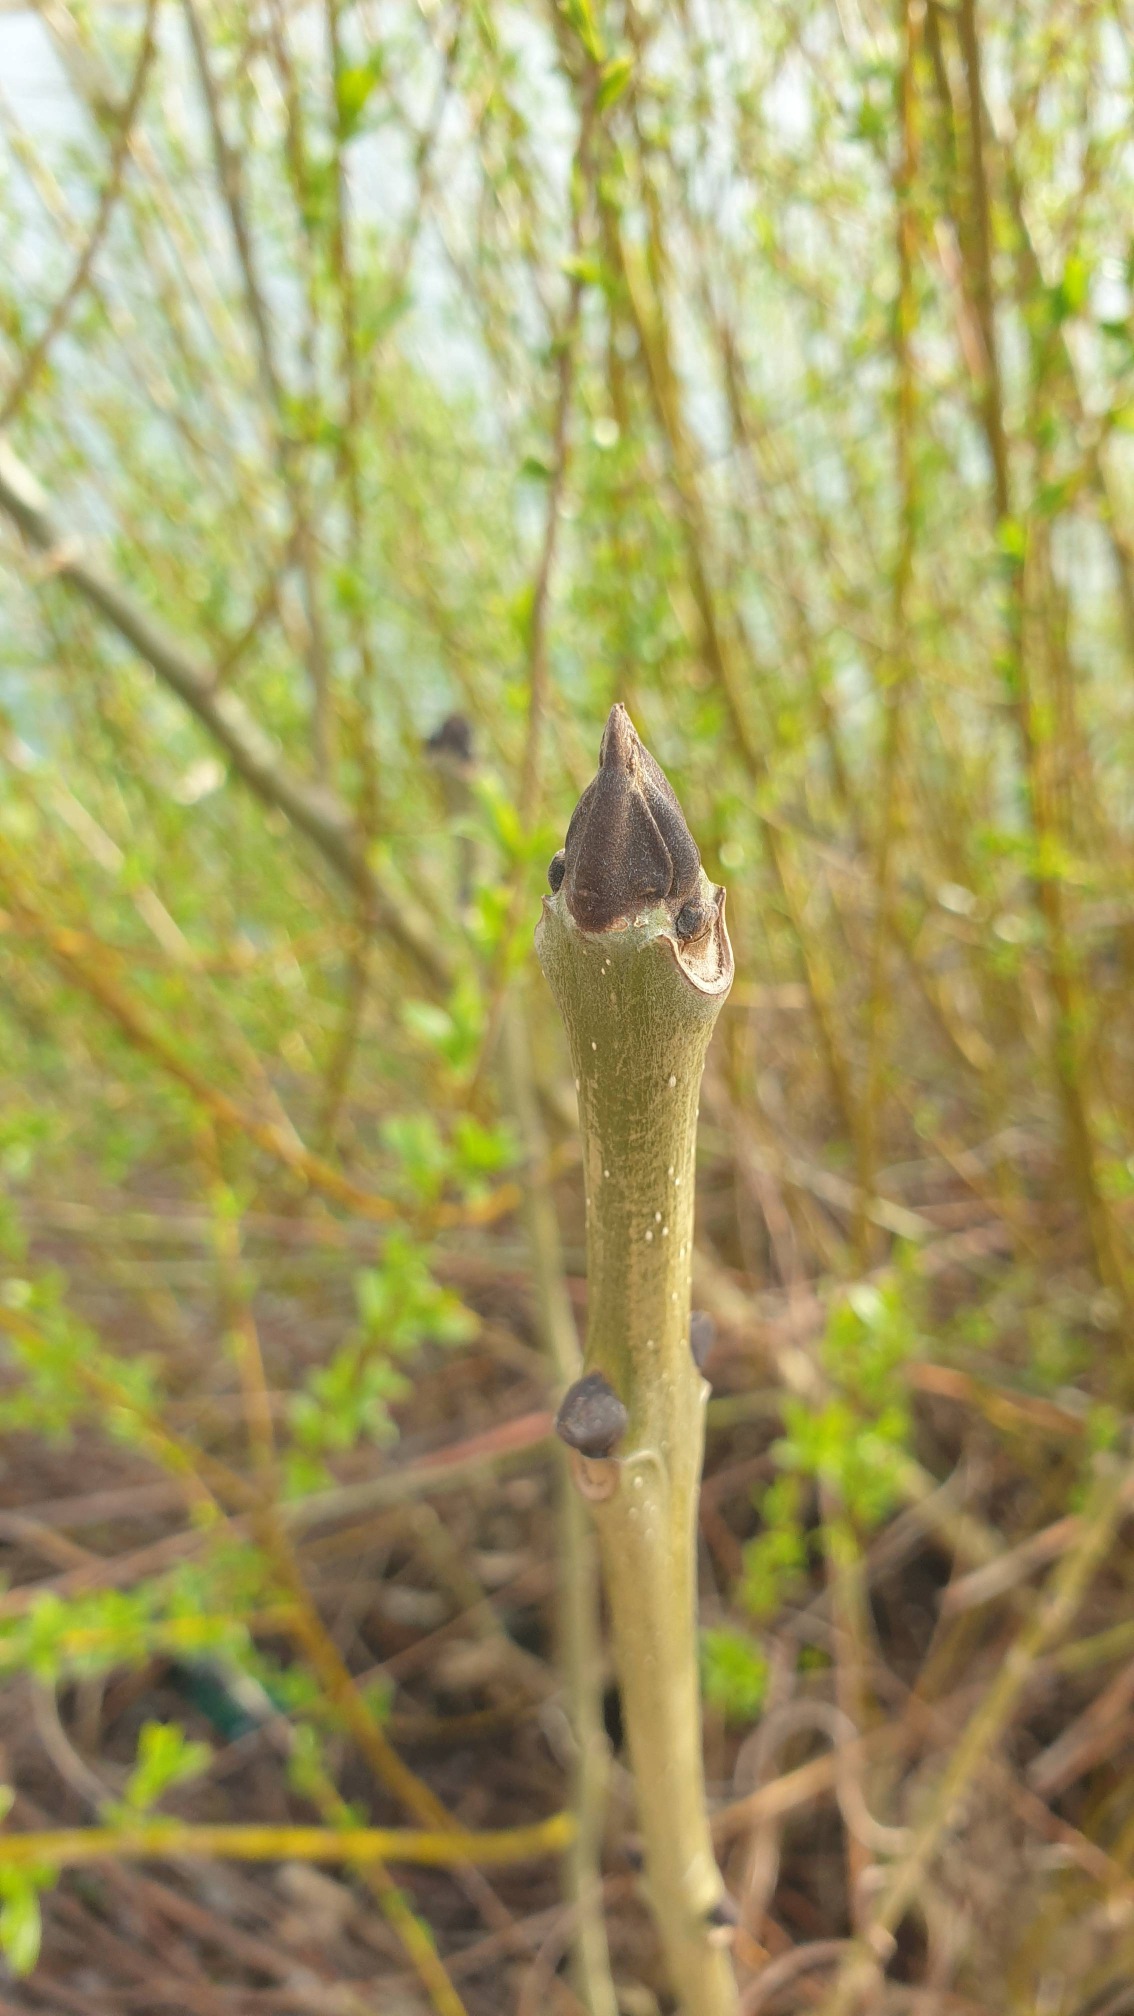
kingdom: Plantae
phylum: Tracheophyta
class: Magnoliopsida
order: Lamiales
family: Oleaceae
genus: Fraxinus
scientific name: Fraxinus excelsior
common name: Ask
